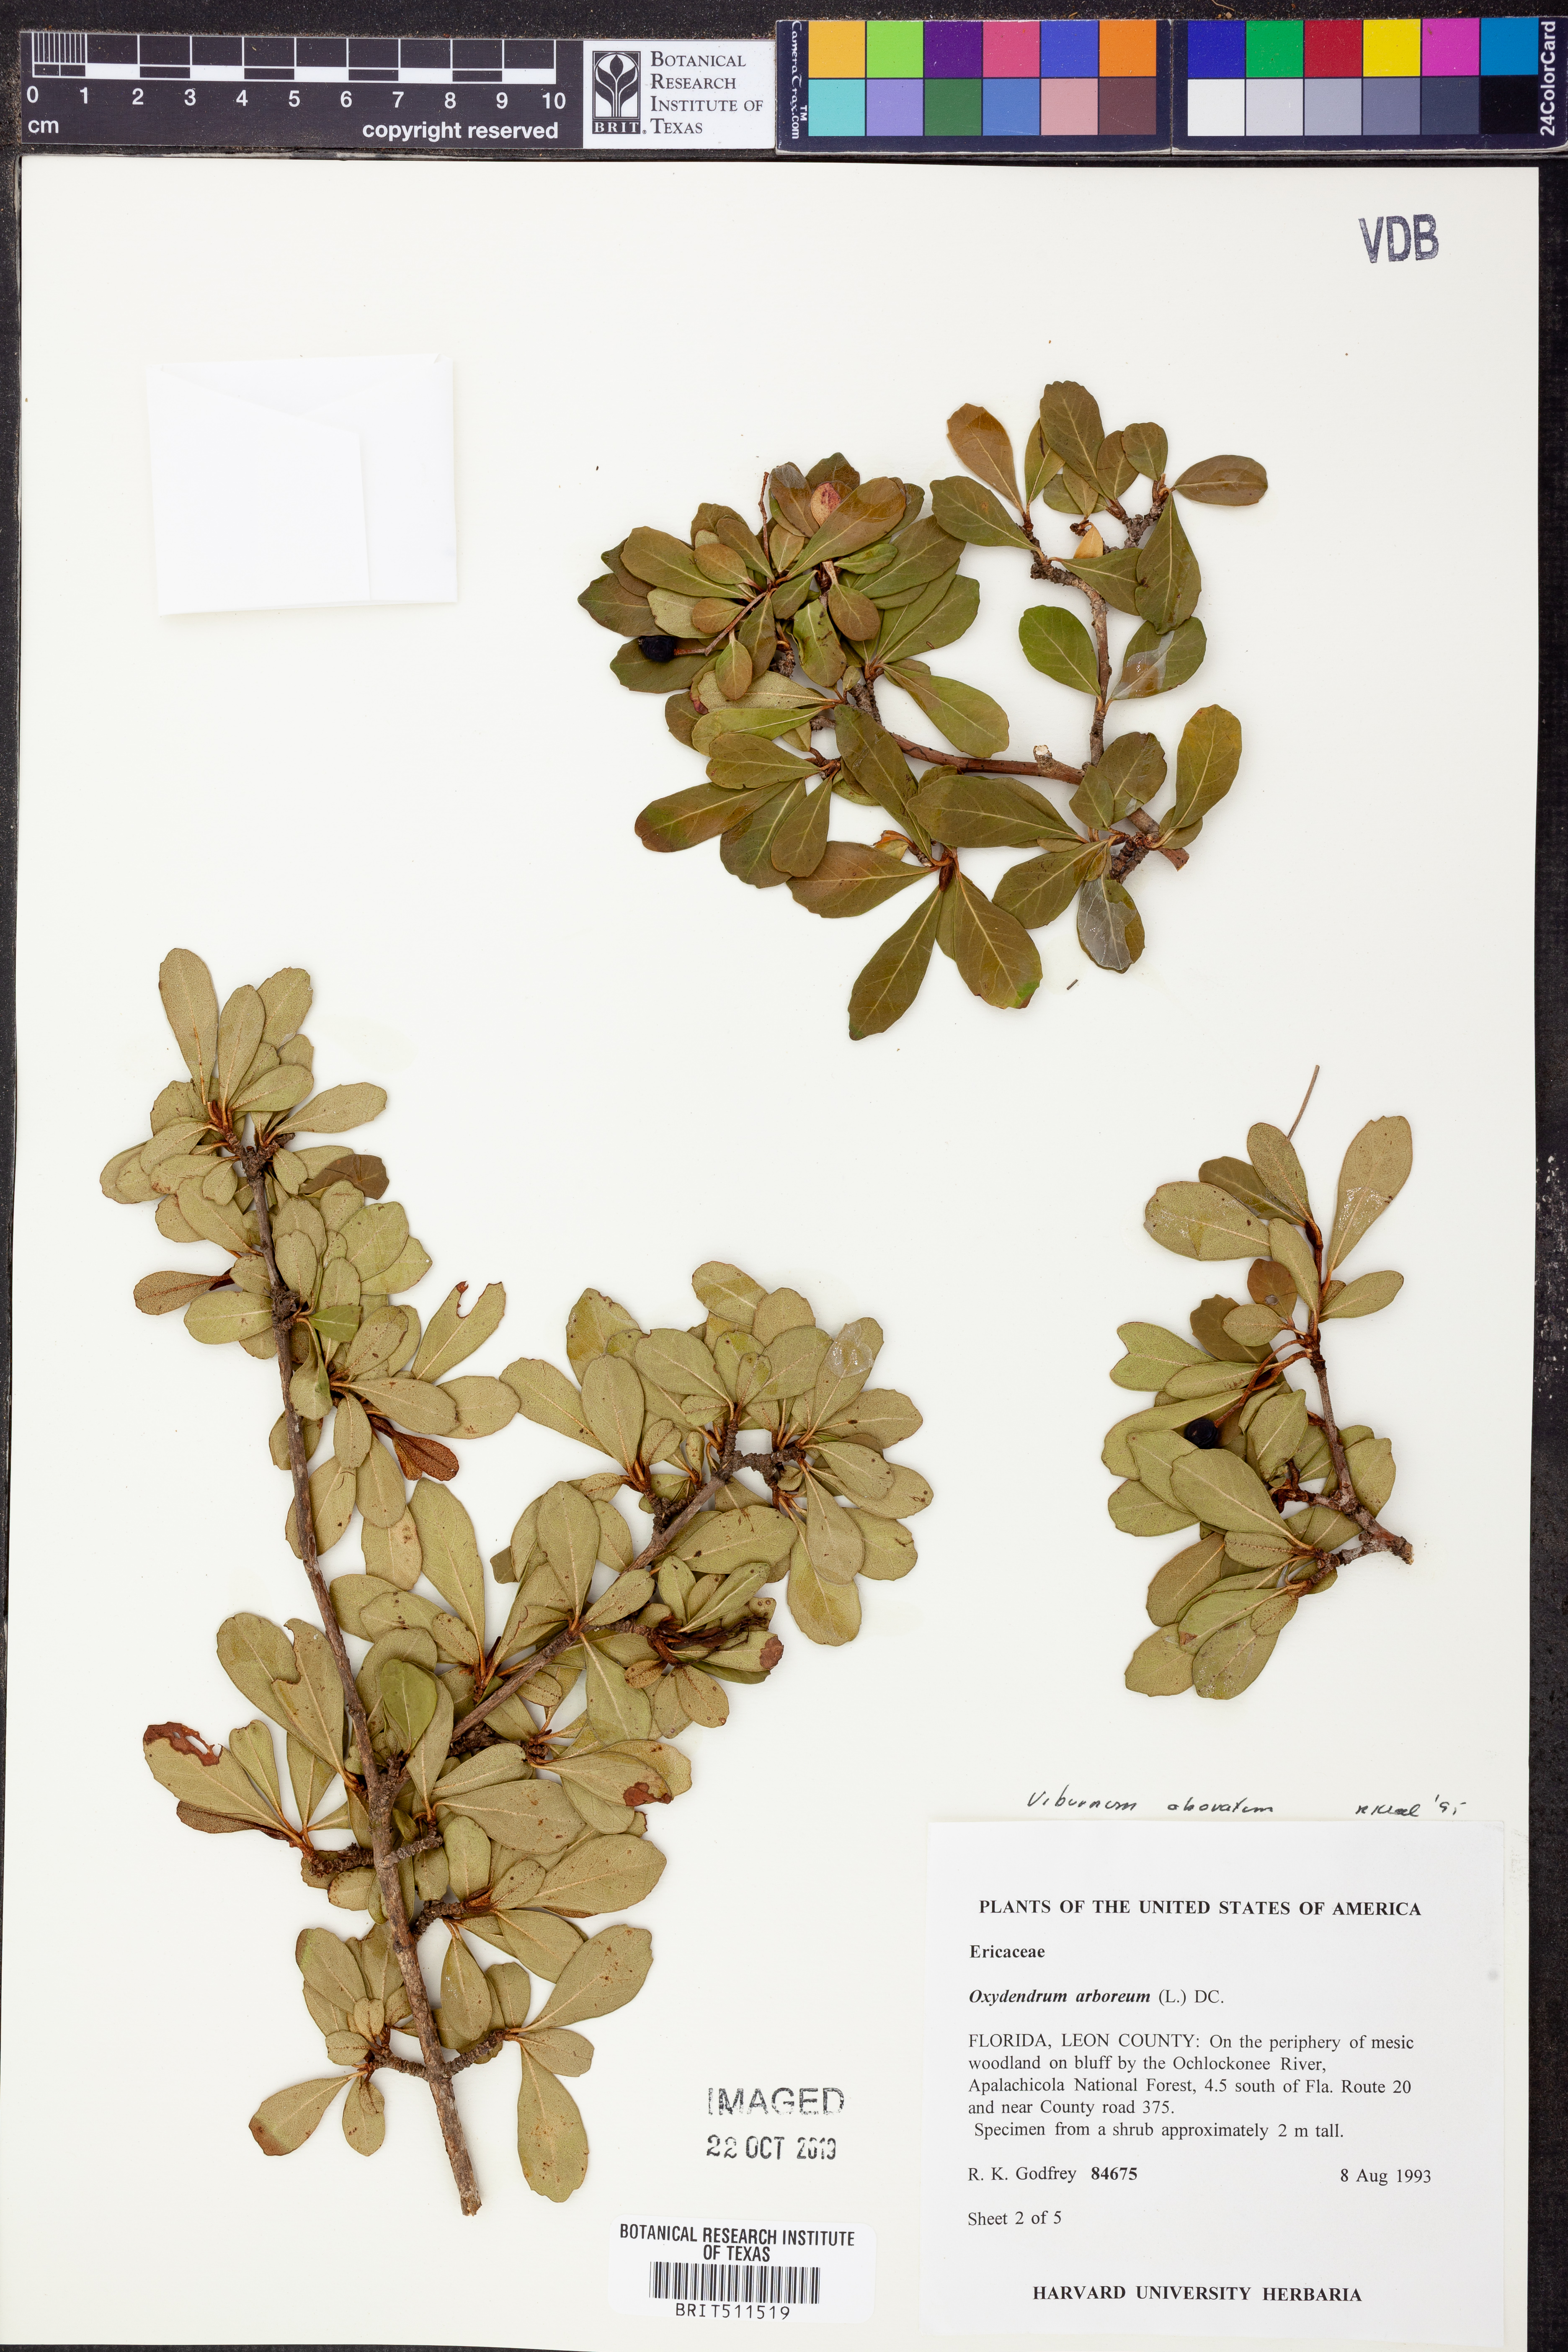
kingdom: Plantae
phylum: Tracheophyta
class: Magnoliopsida
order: Dipsacales
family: Viburnaceae
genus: Viburnum
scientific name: Viburnum obovatum
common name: Walter's viburnum
